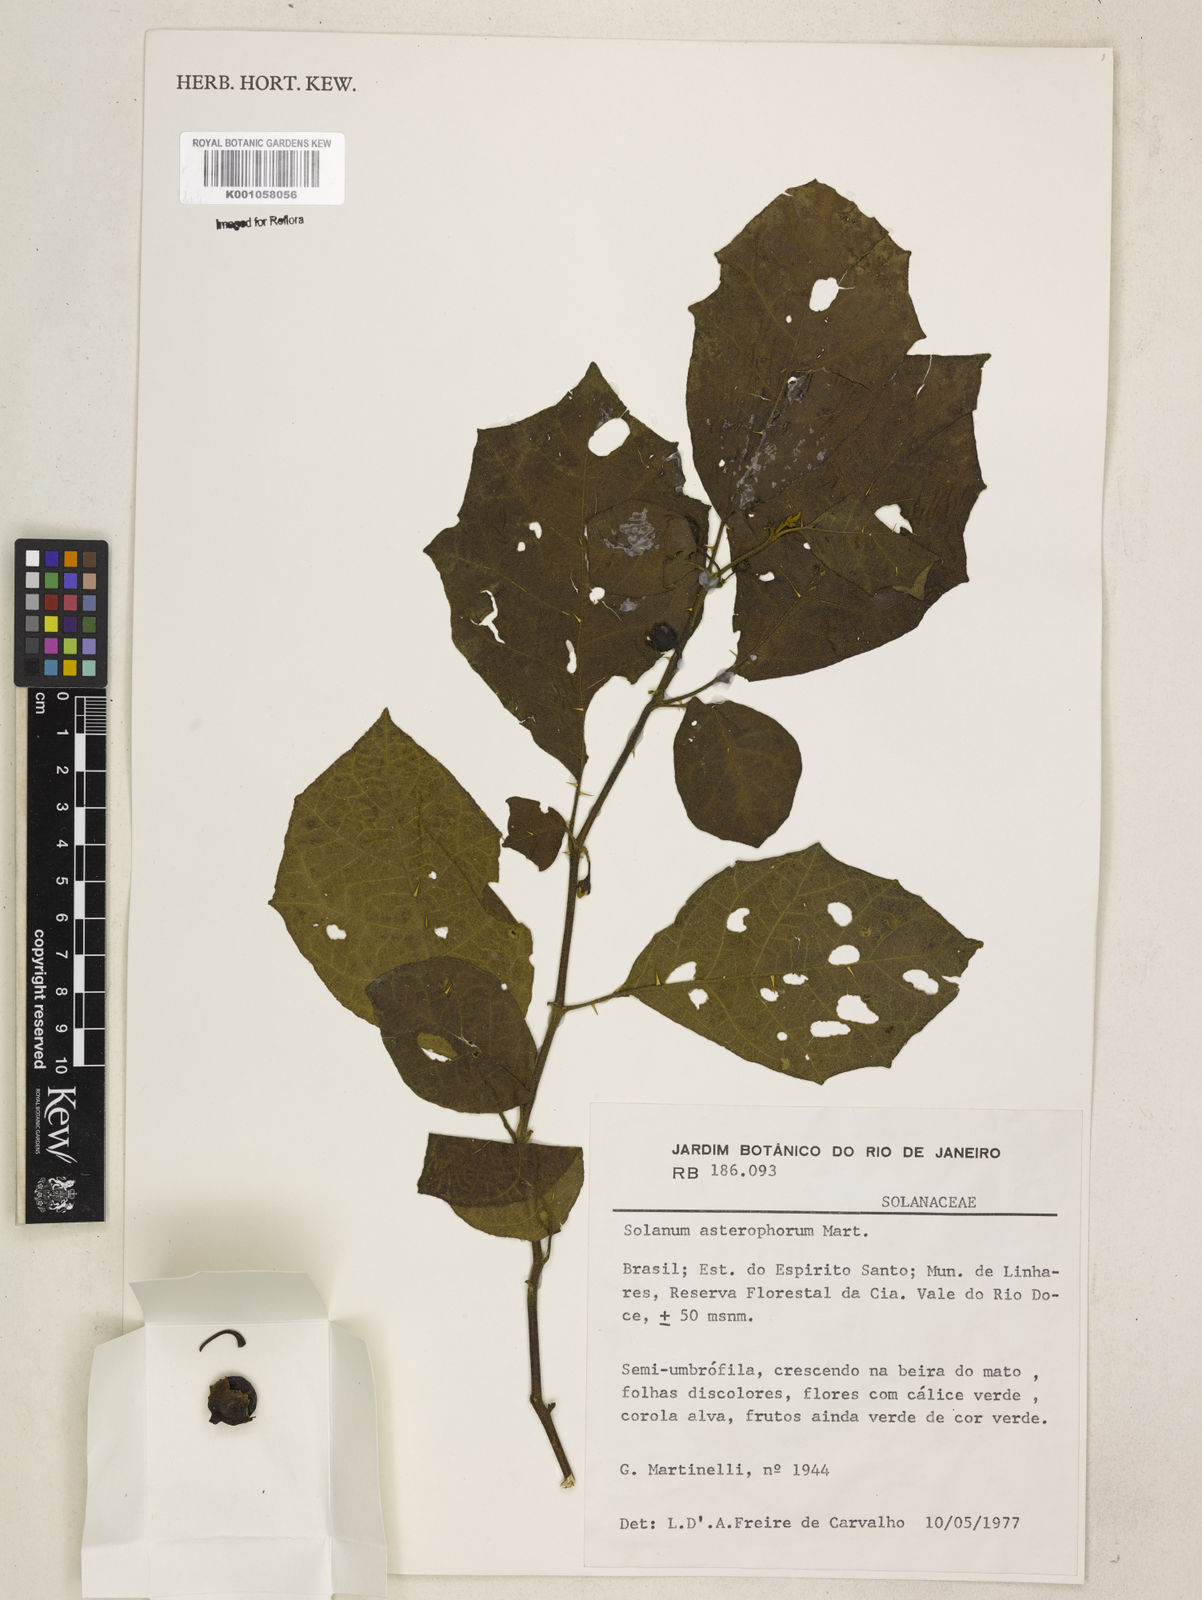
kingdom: Plantae
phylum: Tracheophyta
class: Magnoliopsida
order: Solanales
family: Solanaceae
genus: Solanum
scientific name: Solanum asterophorum
